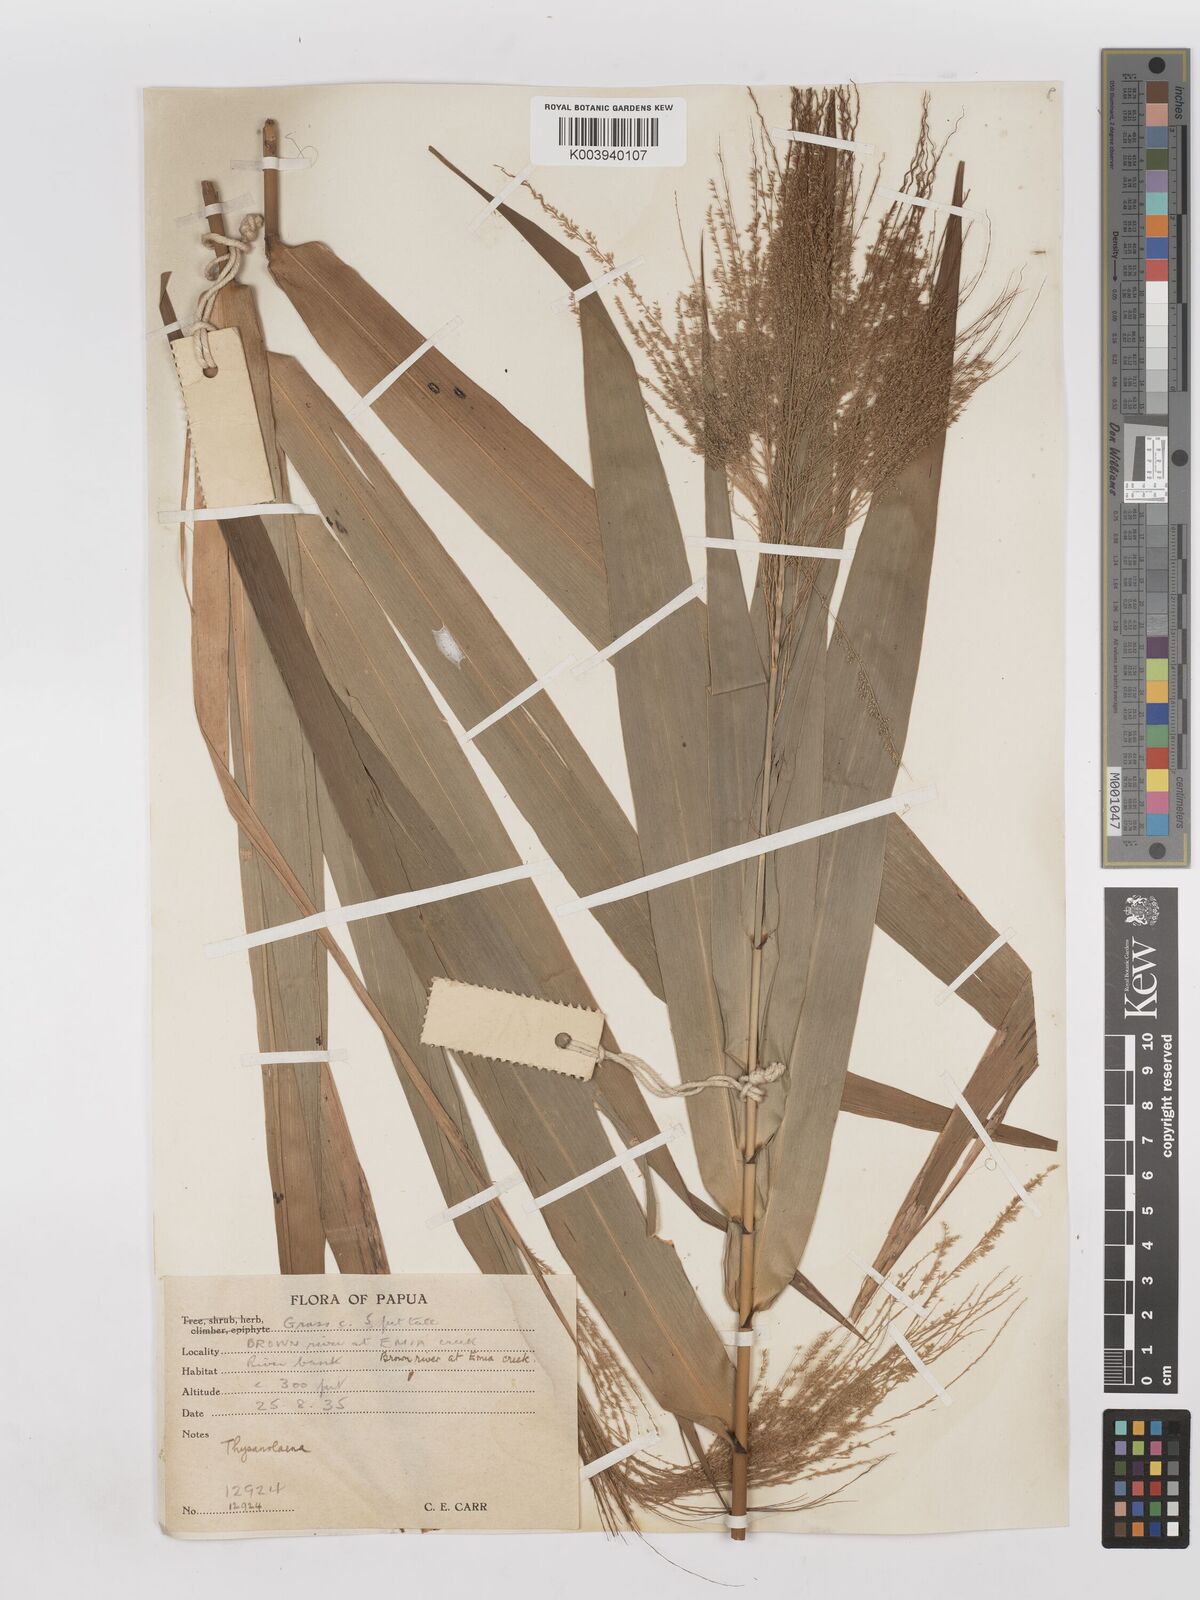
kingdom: Plantae
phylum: Tracheophyta
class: Liliopsida
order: Poales
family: Poaceae
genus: Thysanolaena
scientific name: Thysanolaena latifolia
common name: Tiger grass
